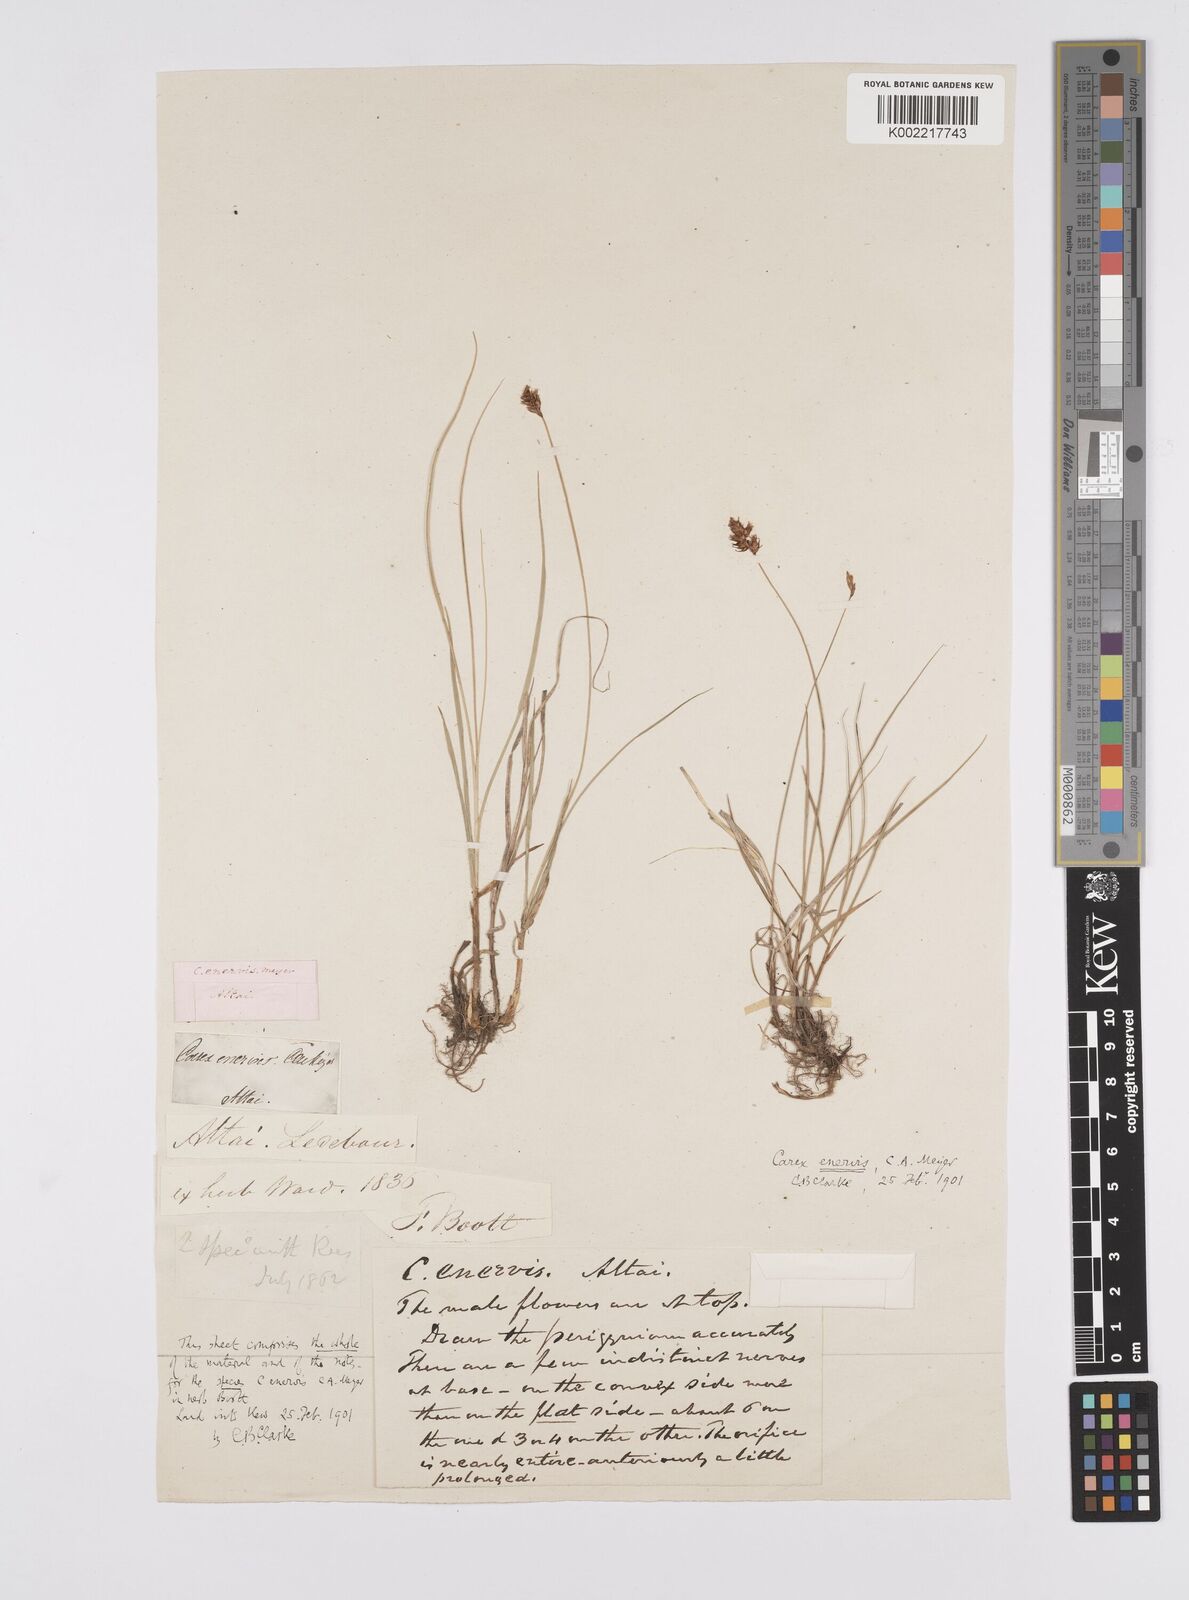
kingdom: Plantae
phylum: Tracheophyta
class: Liliopsida
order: Poales
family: Cyperaceae
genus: Carex
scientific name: Carex stenophylla
